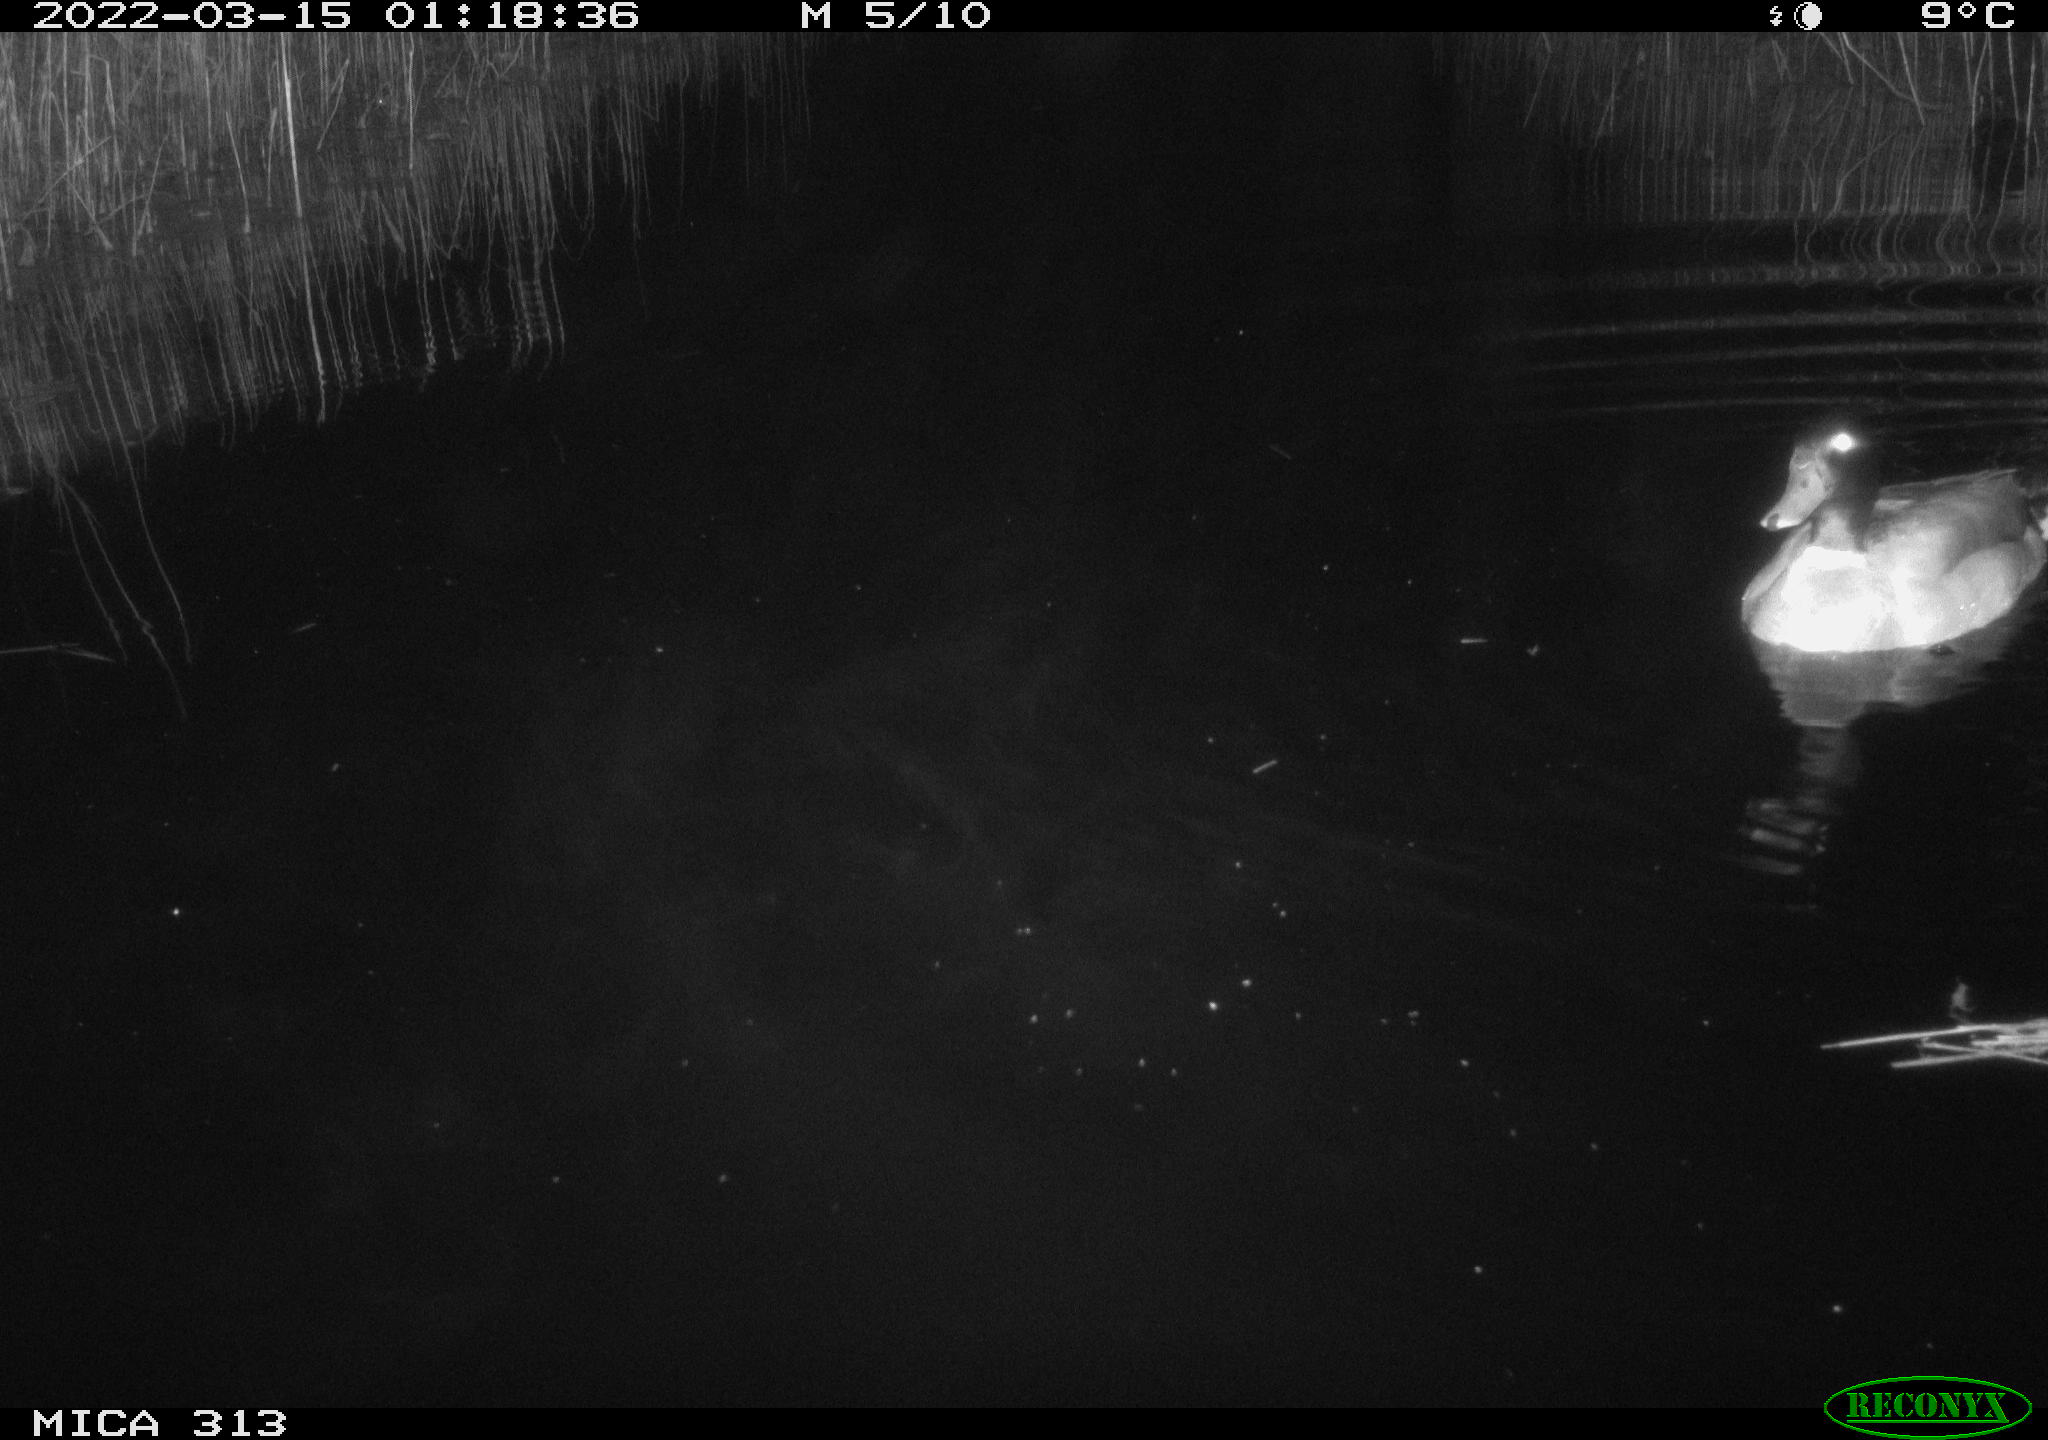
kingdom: Animalia
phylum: Chordata
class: Aves
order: Anseriformes
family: Anatidae
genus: Anas
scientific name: Anas platyrhynchos
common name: Mallard
